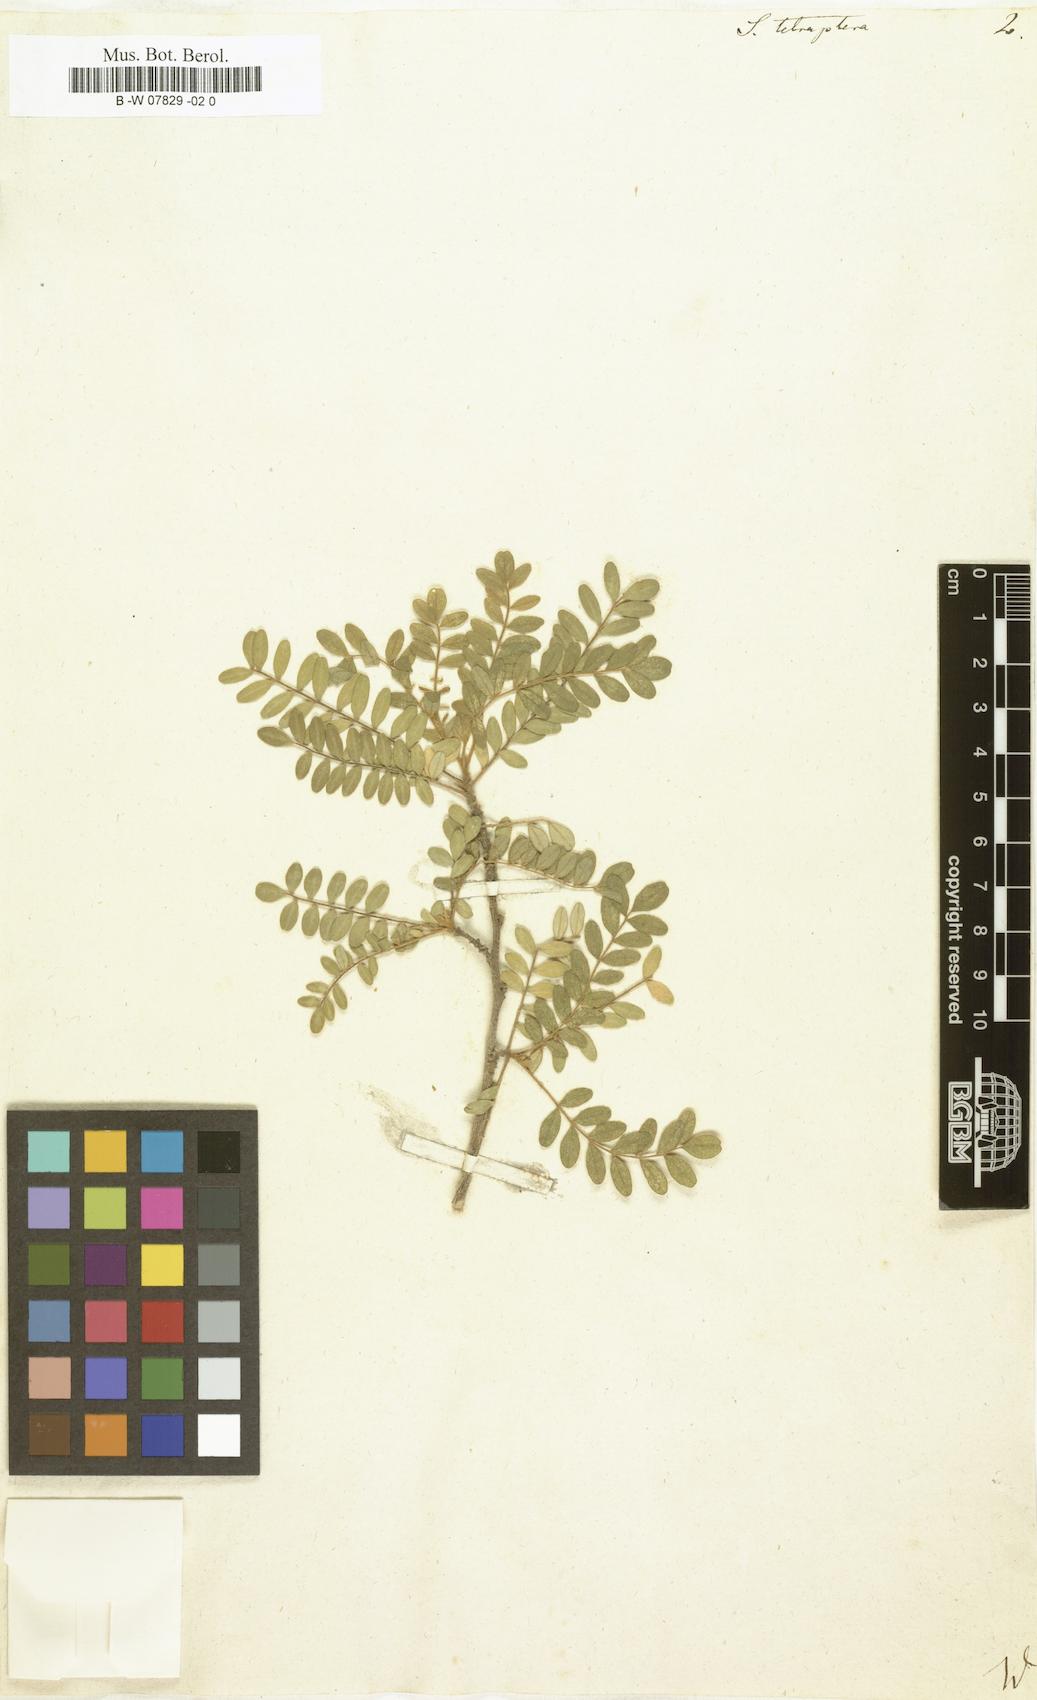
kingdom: Plantae
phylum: Tracheophyta
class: Magnoliopsida
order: Fabales
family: Fabaceae
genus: Sophora
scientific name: Sophora tetraptera
